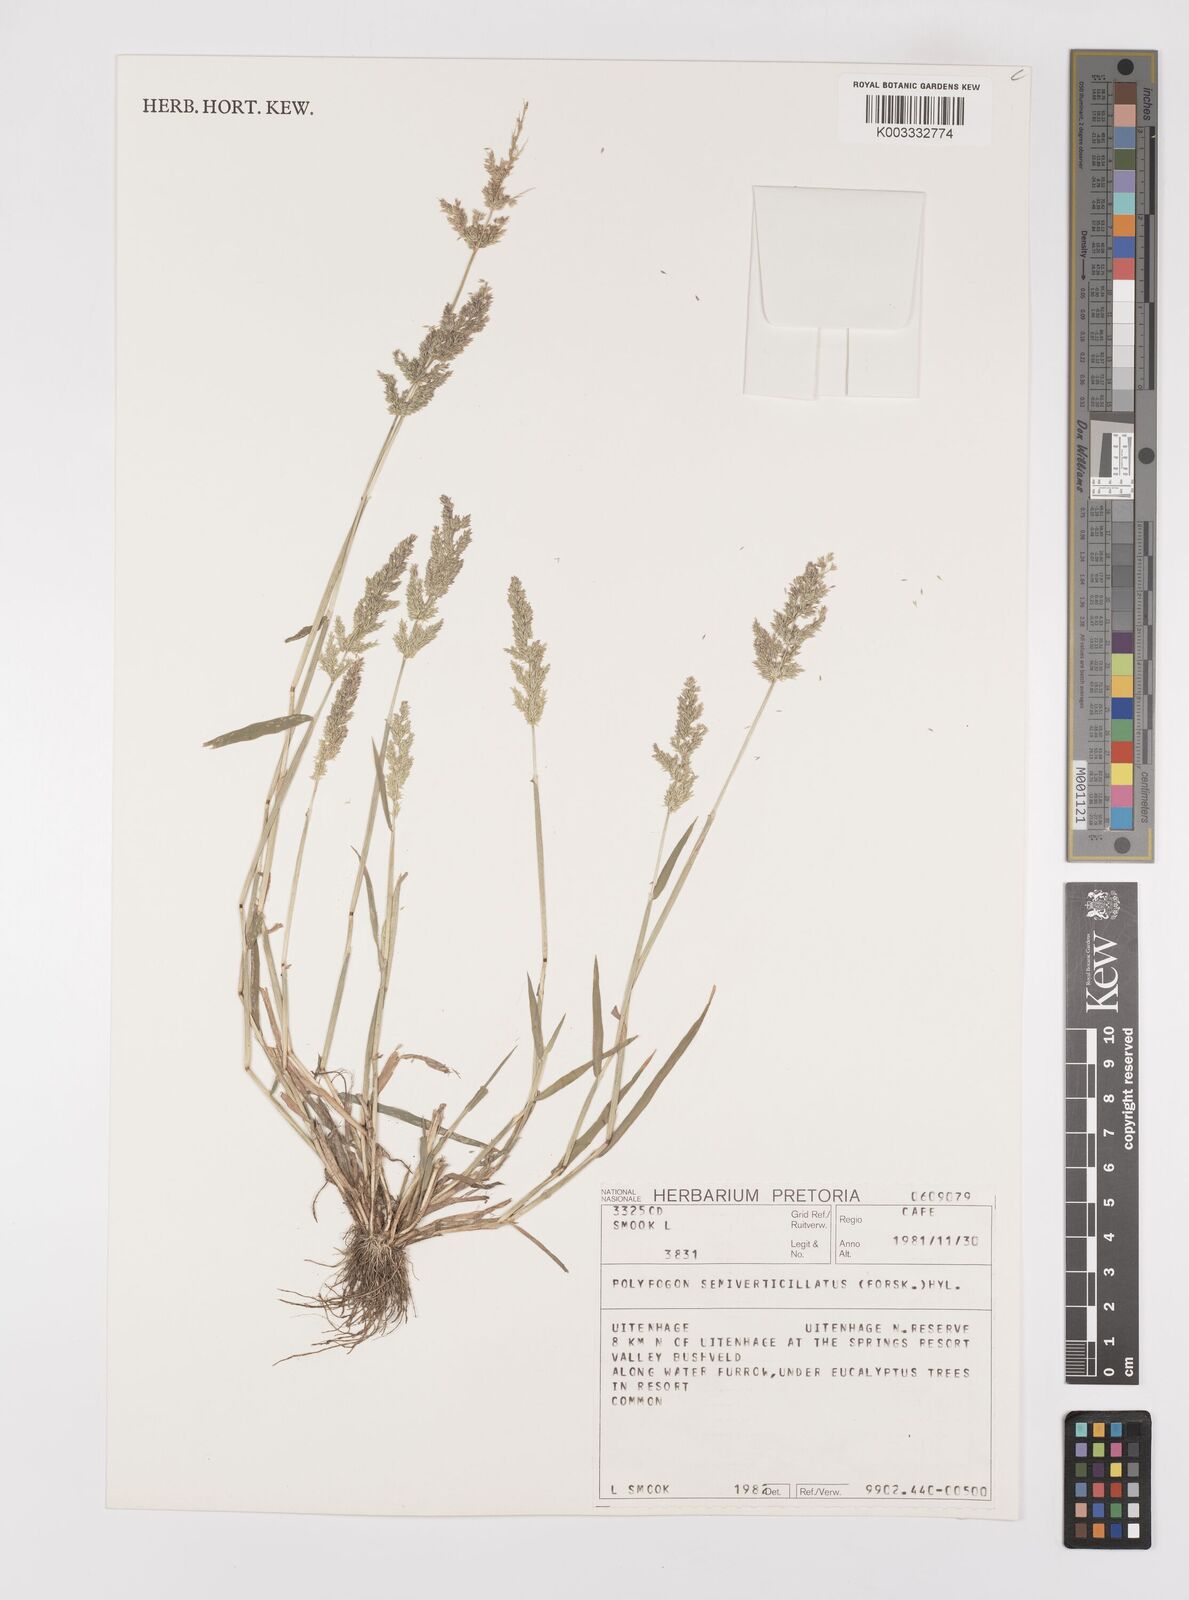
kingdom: Plantae
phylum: Tracheophyta
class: Liliopsida
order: Poales
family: Poaceae
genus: Polypogon
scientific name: Polypogon viridis
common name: Water bent
